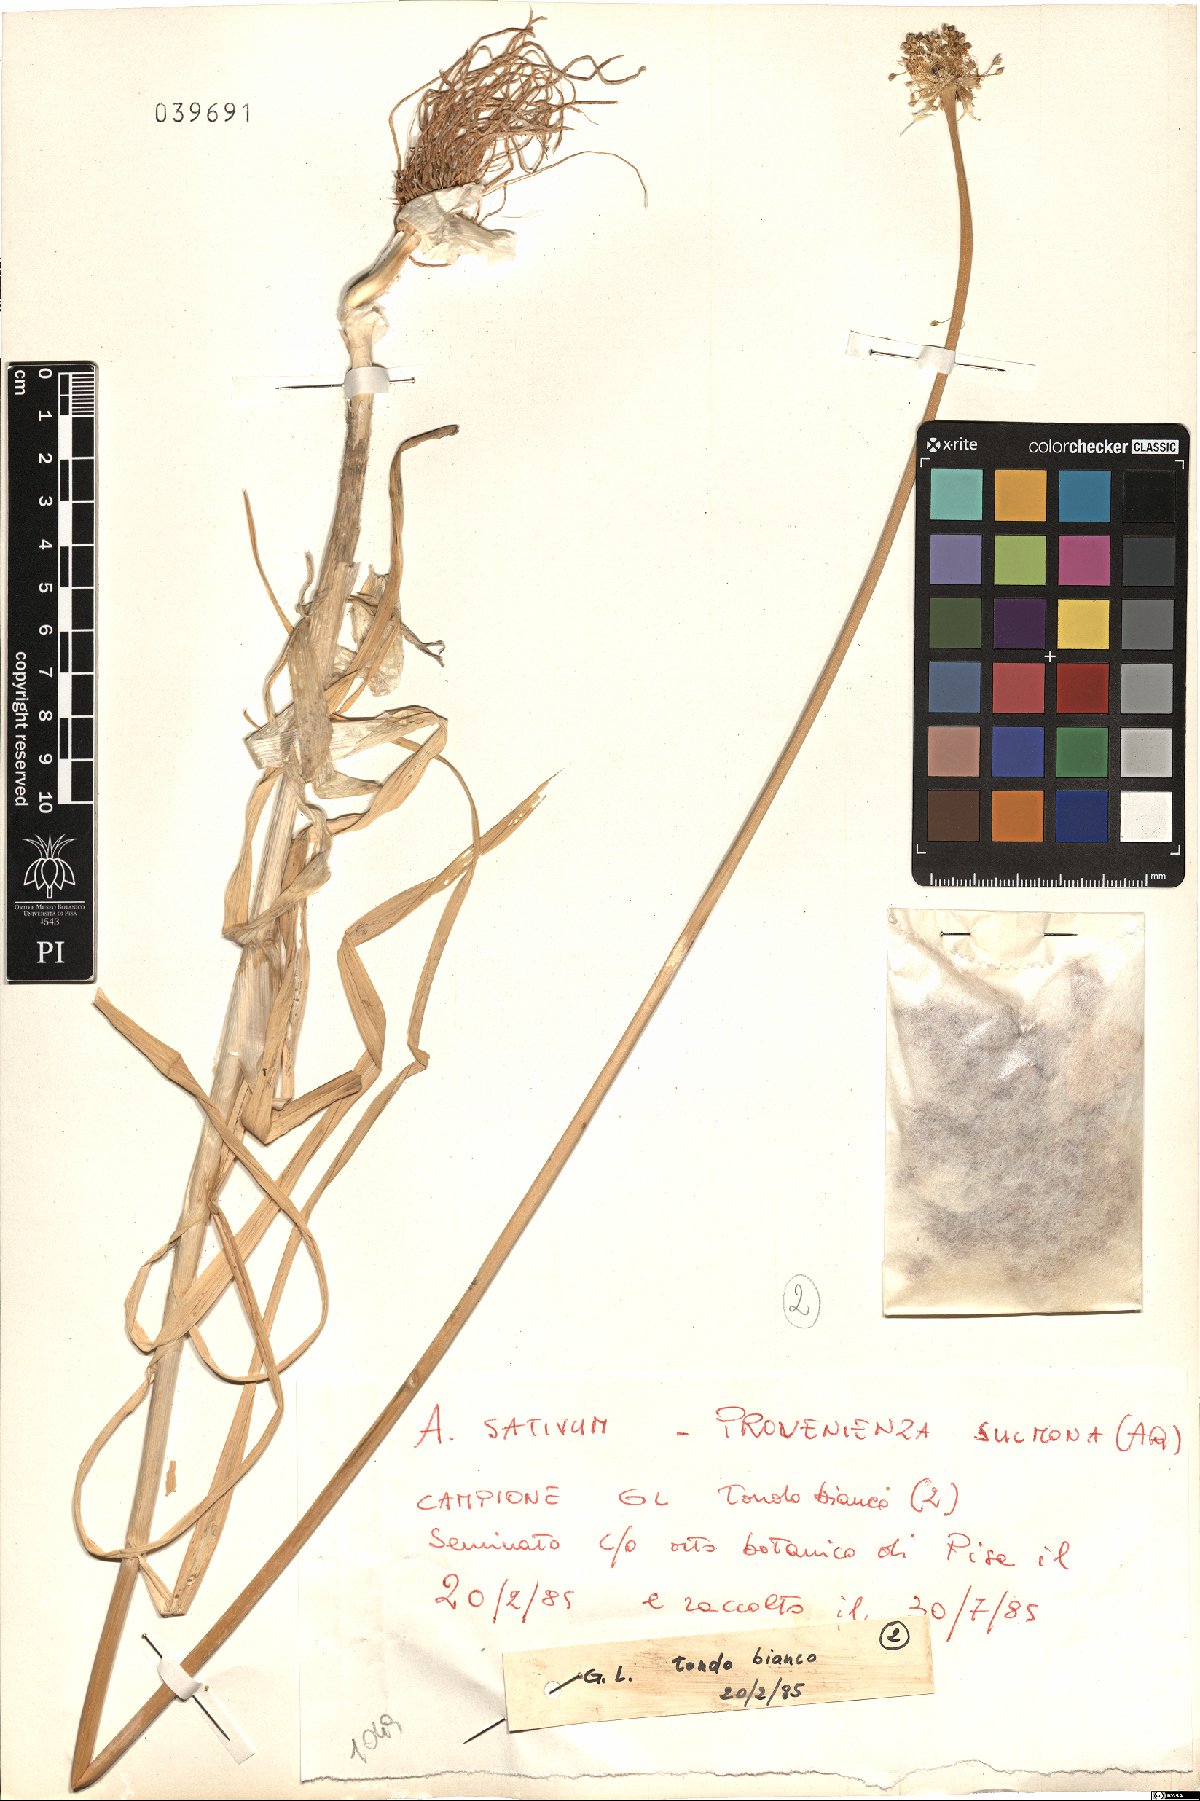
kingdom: Plantae
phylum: Tracheophyta
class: Liliopsida
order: Asparagales
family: Amaryllidaceae
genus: Allium
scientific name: Allium sativum
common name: Garlic
